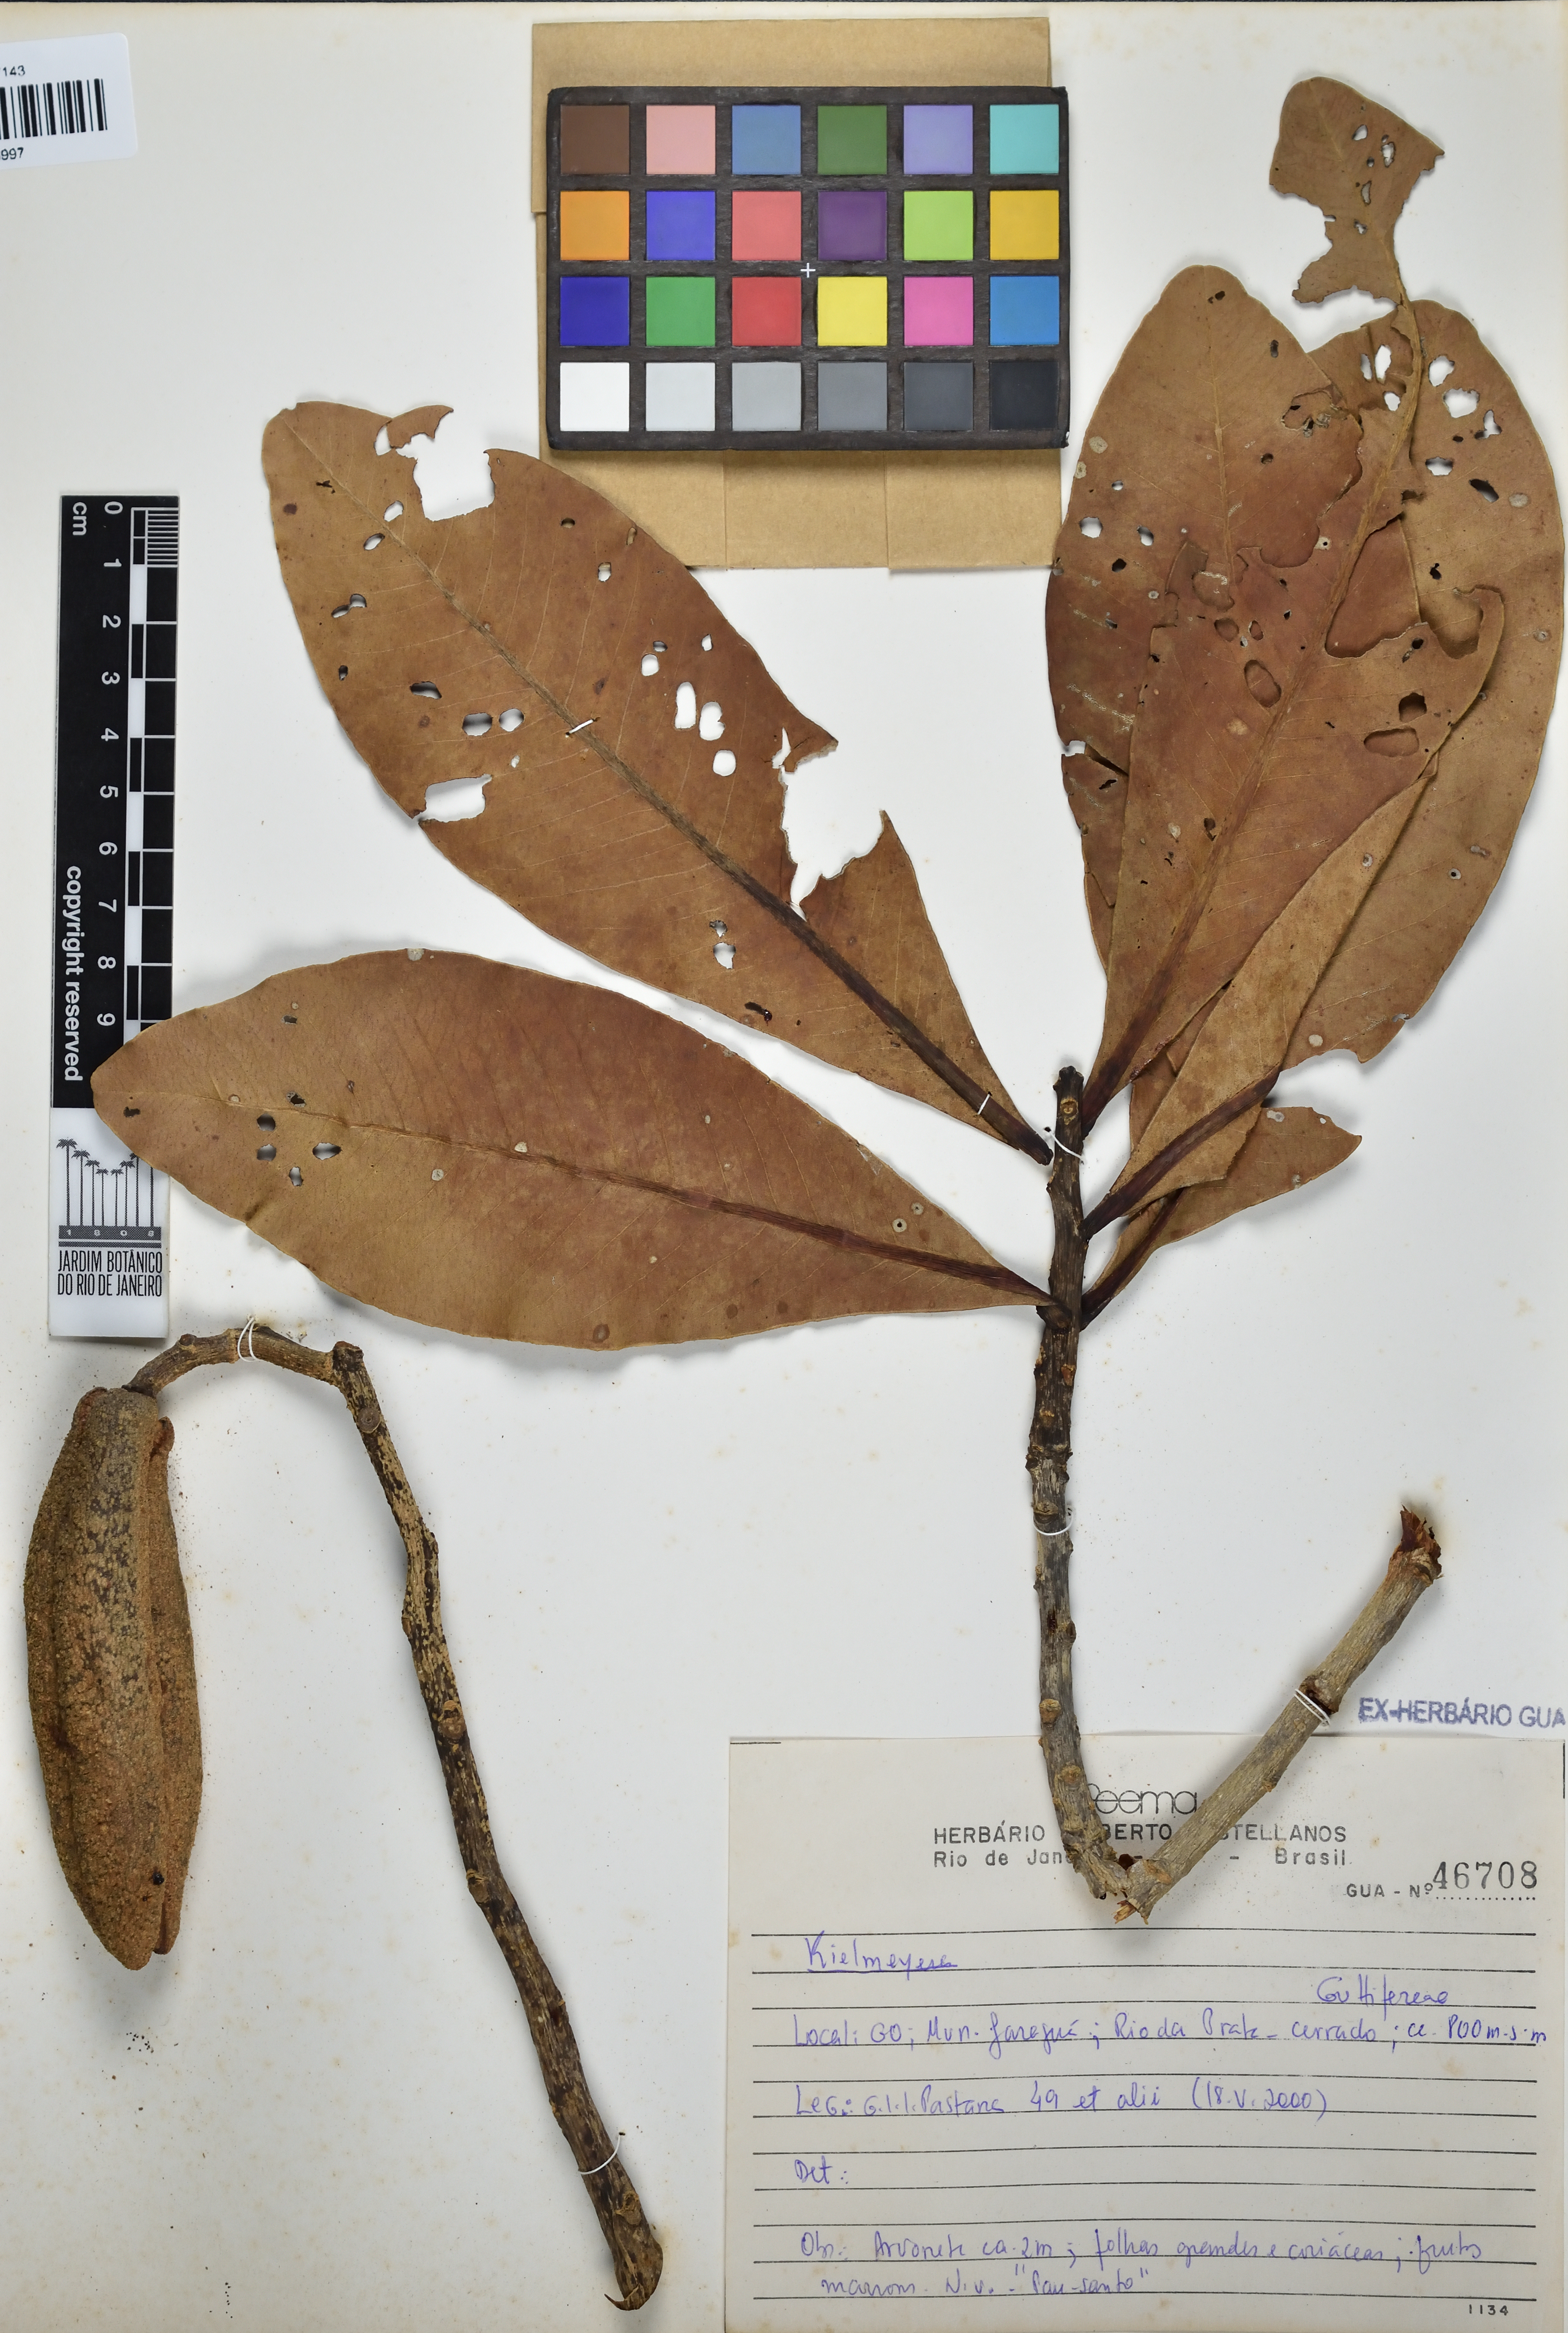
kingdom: Plantae
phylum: Tracheophyta
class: Magnoliopsida
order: Malpighiales
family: Calophyllaceae
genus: Kielmeyera
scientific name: Kielmeyera
